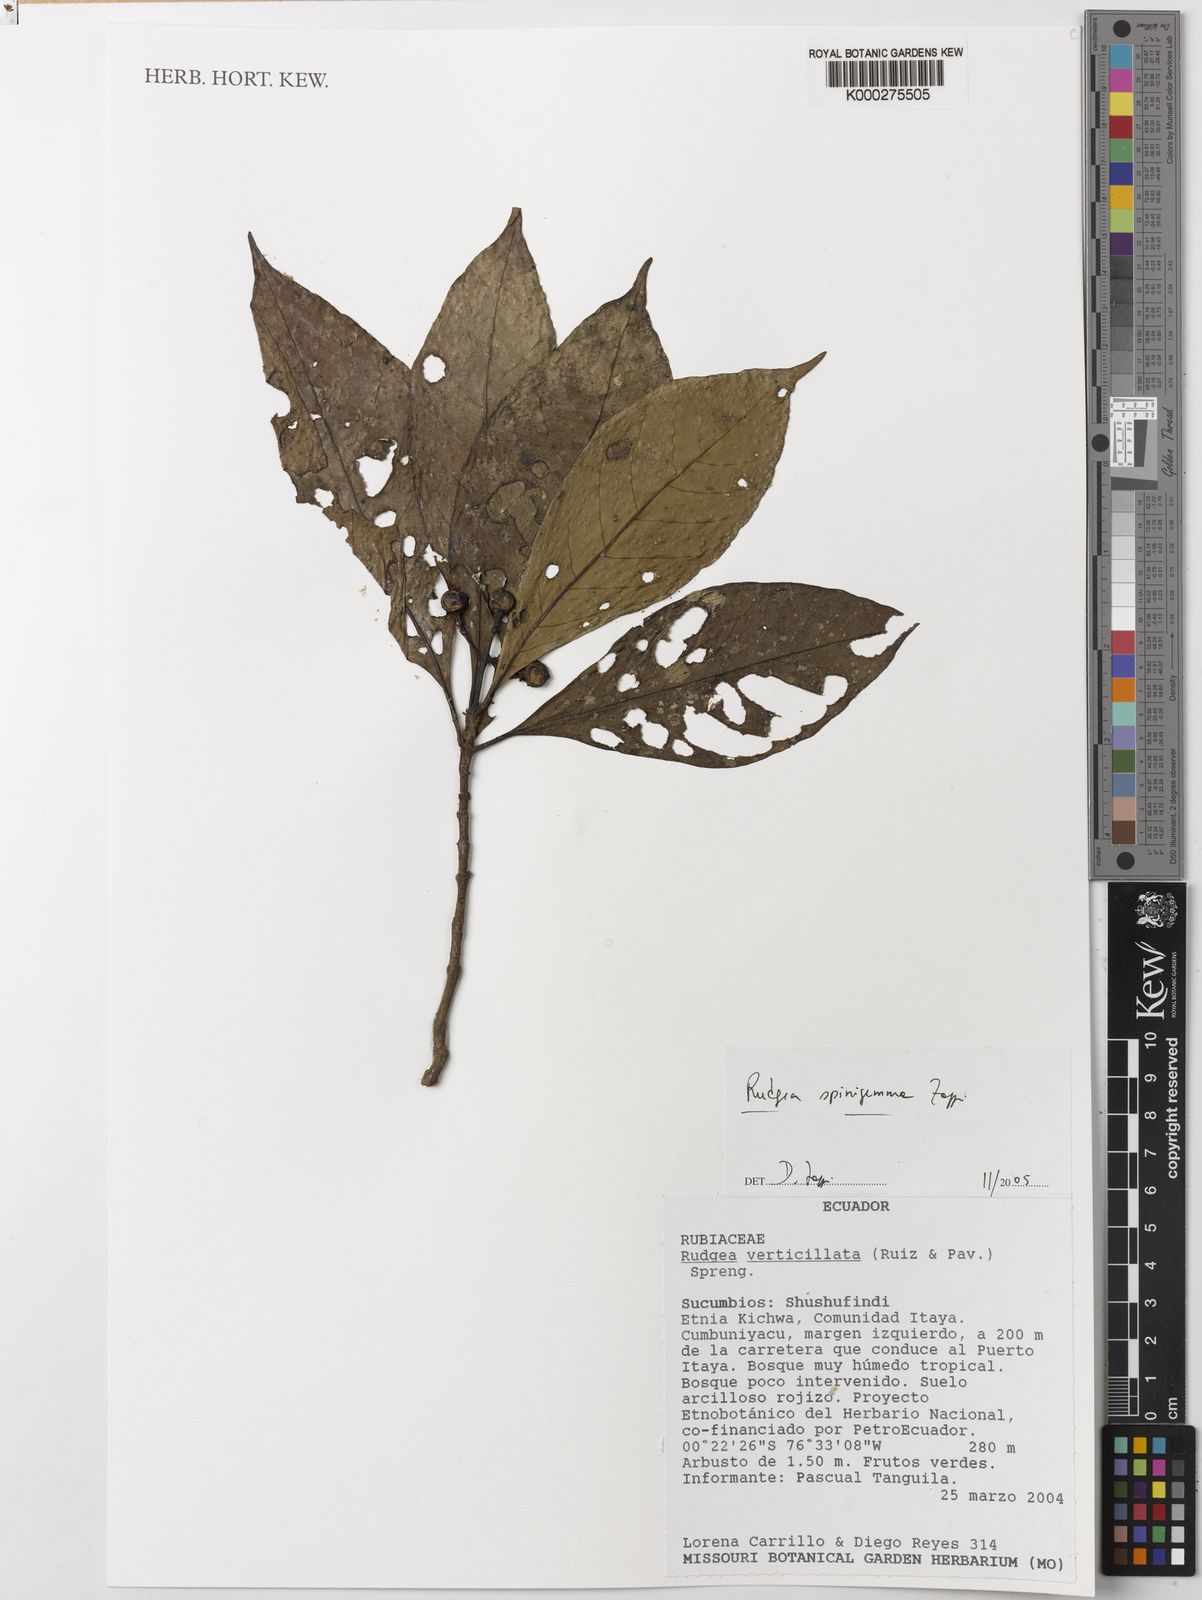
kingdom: Plantae
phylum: Tracheophyta
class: Magnoliopsida
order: Gentianales
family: Rubiaceae
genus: Rudgea
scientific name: Rudgea spinigemma
